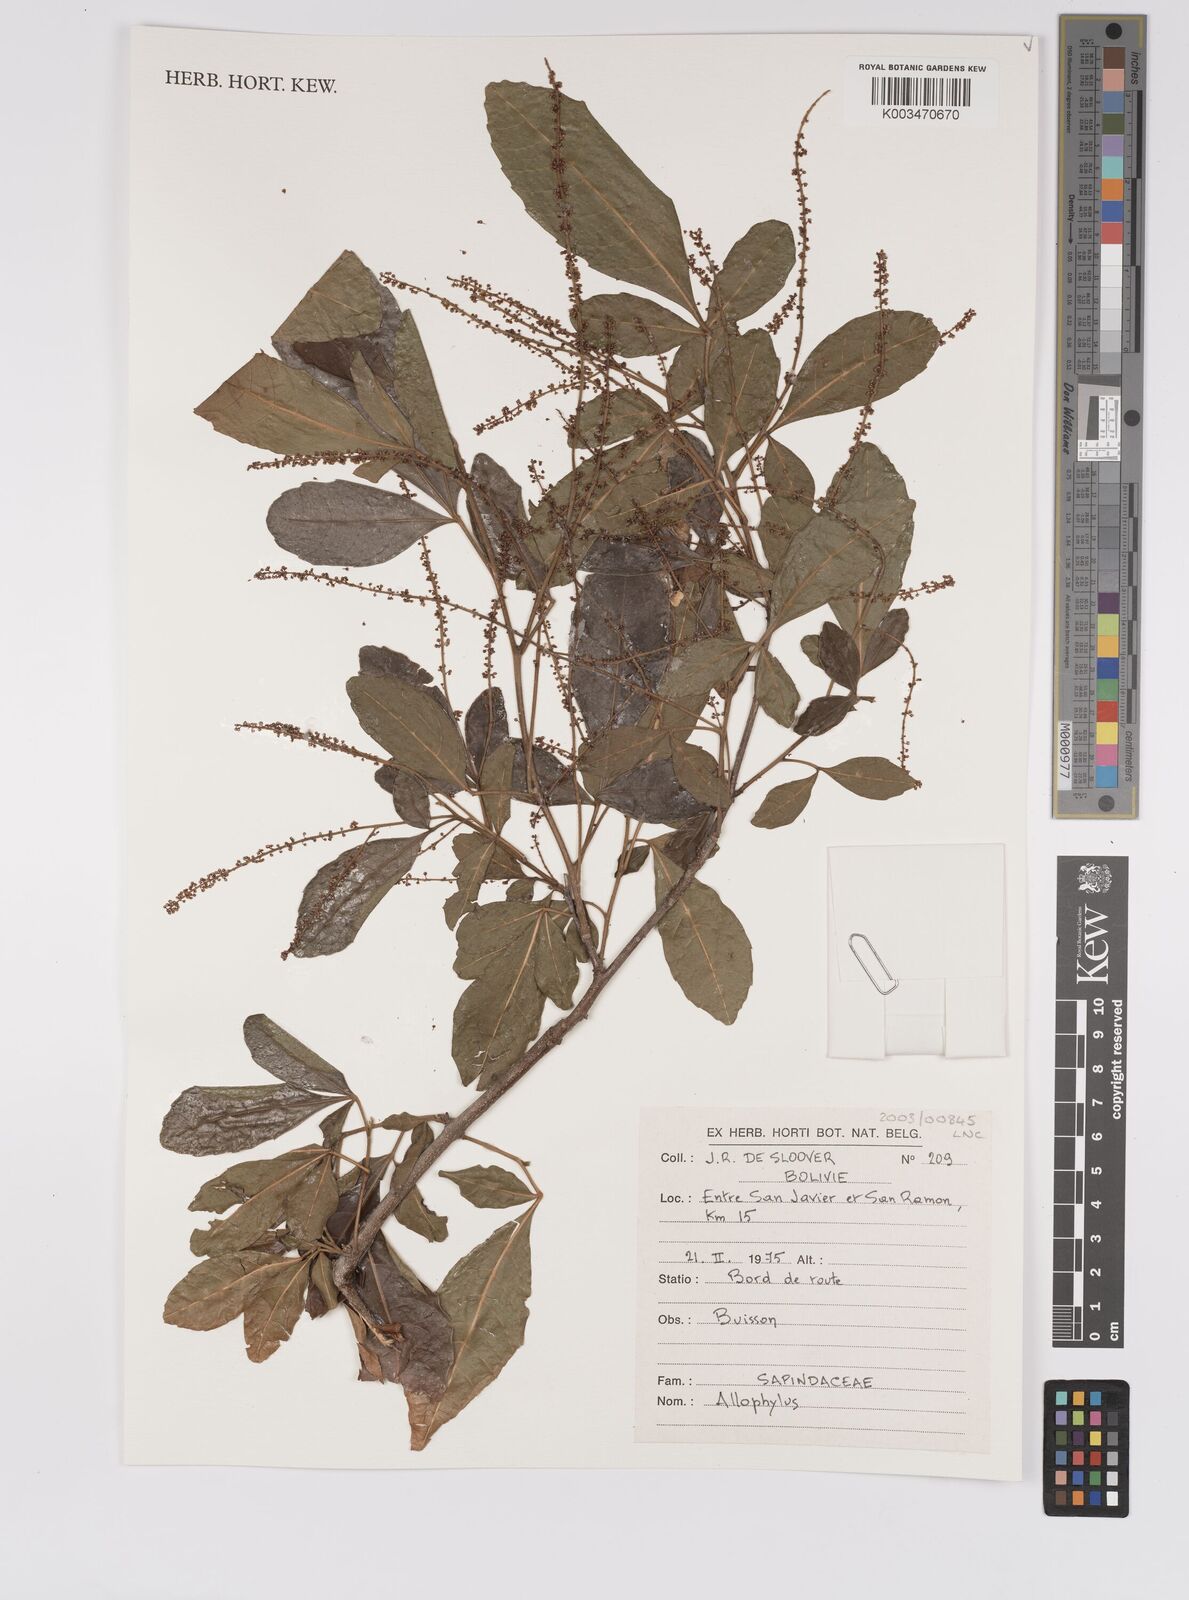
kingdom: Plantae
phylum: Tracheophyta
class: Magnoliopsida
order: Sapindales
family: Sapindaceae
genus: Allophylus
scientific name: Allophylus
